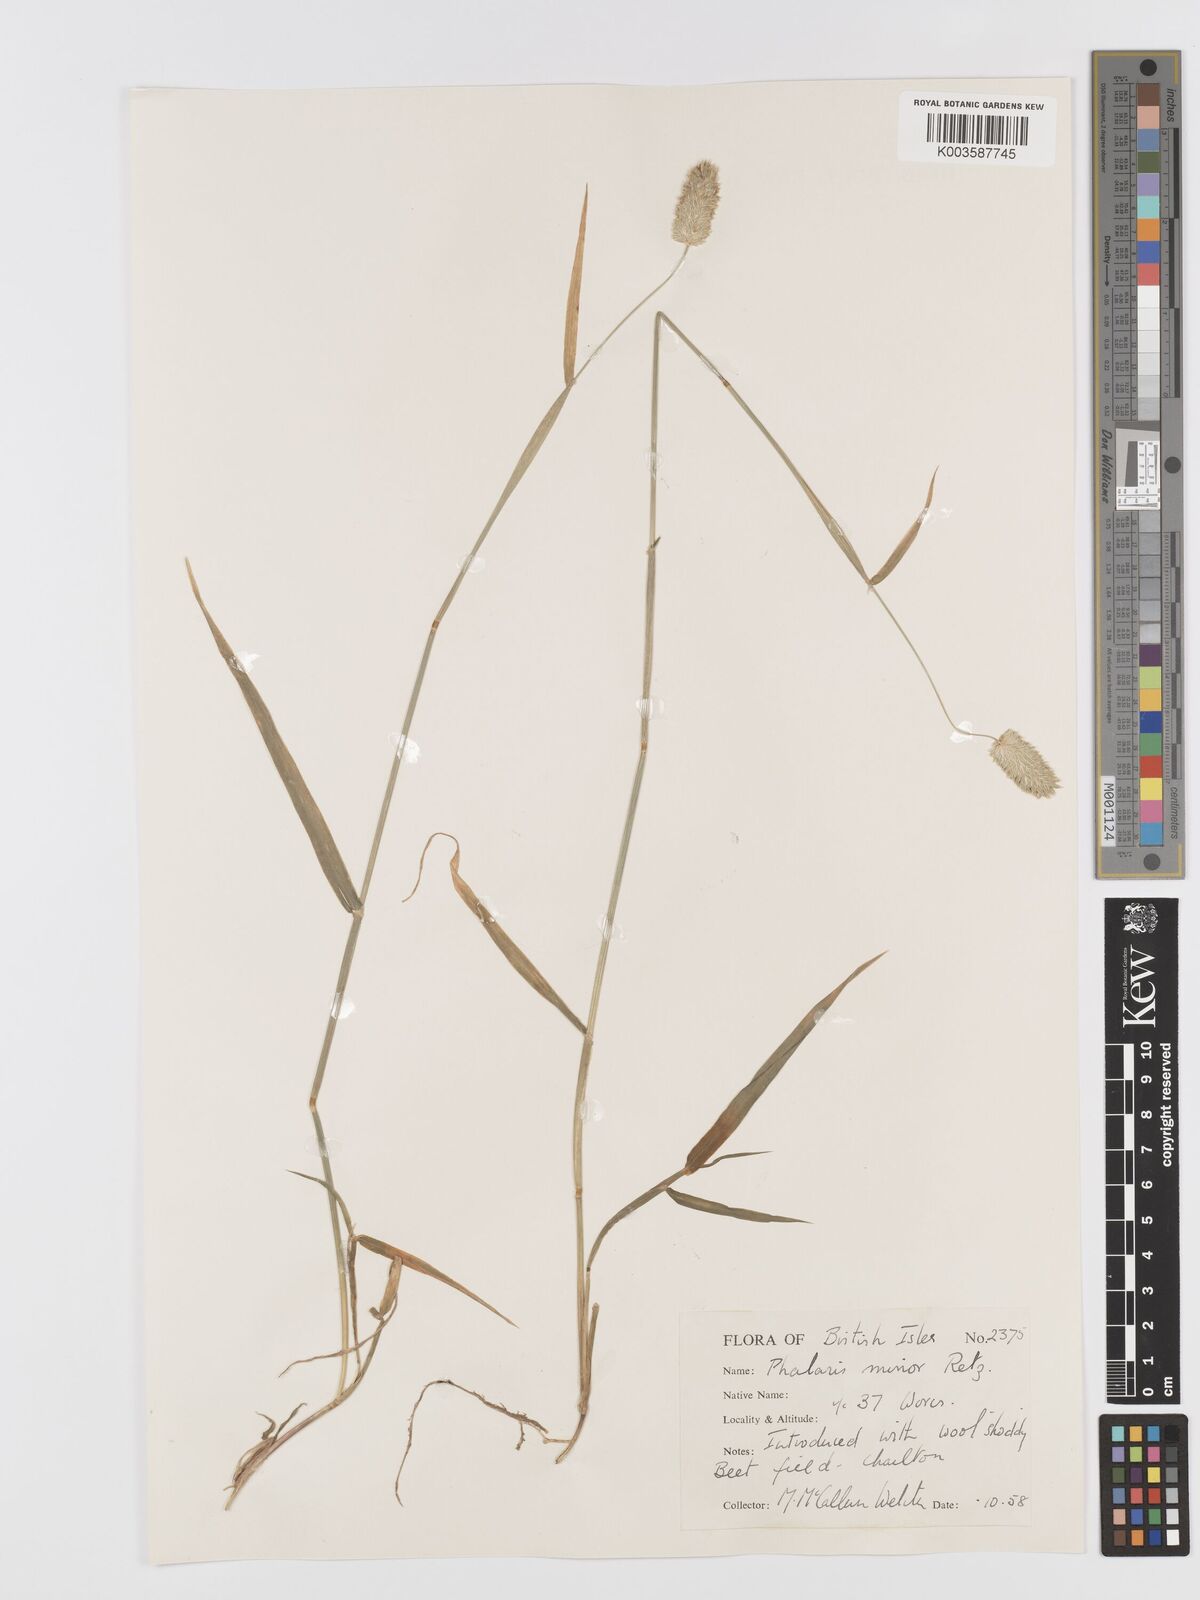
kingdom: Plantae
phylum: Tracheophyta
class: Liliopsida
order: Poales
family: Poaceae
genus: Phalaris
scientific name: Phalaris minor
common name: Littleseed canarygrass
